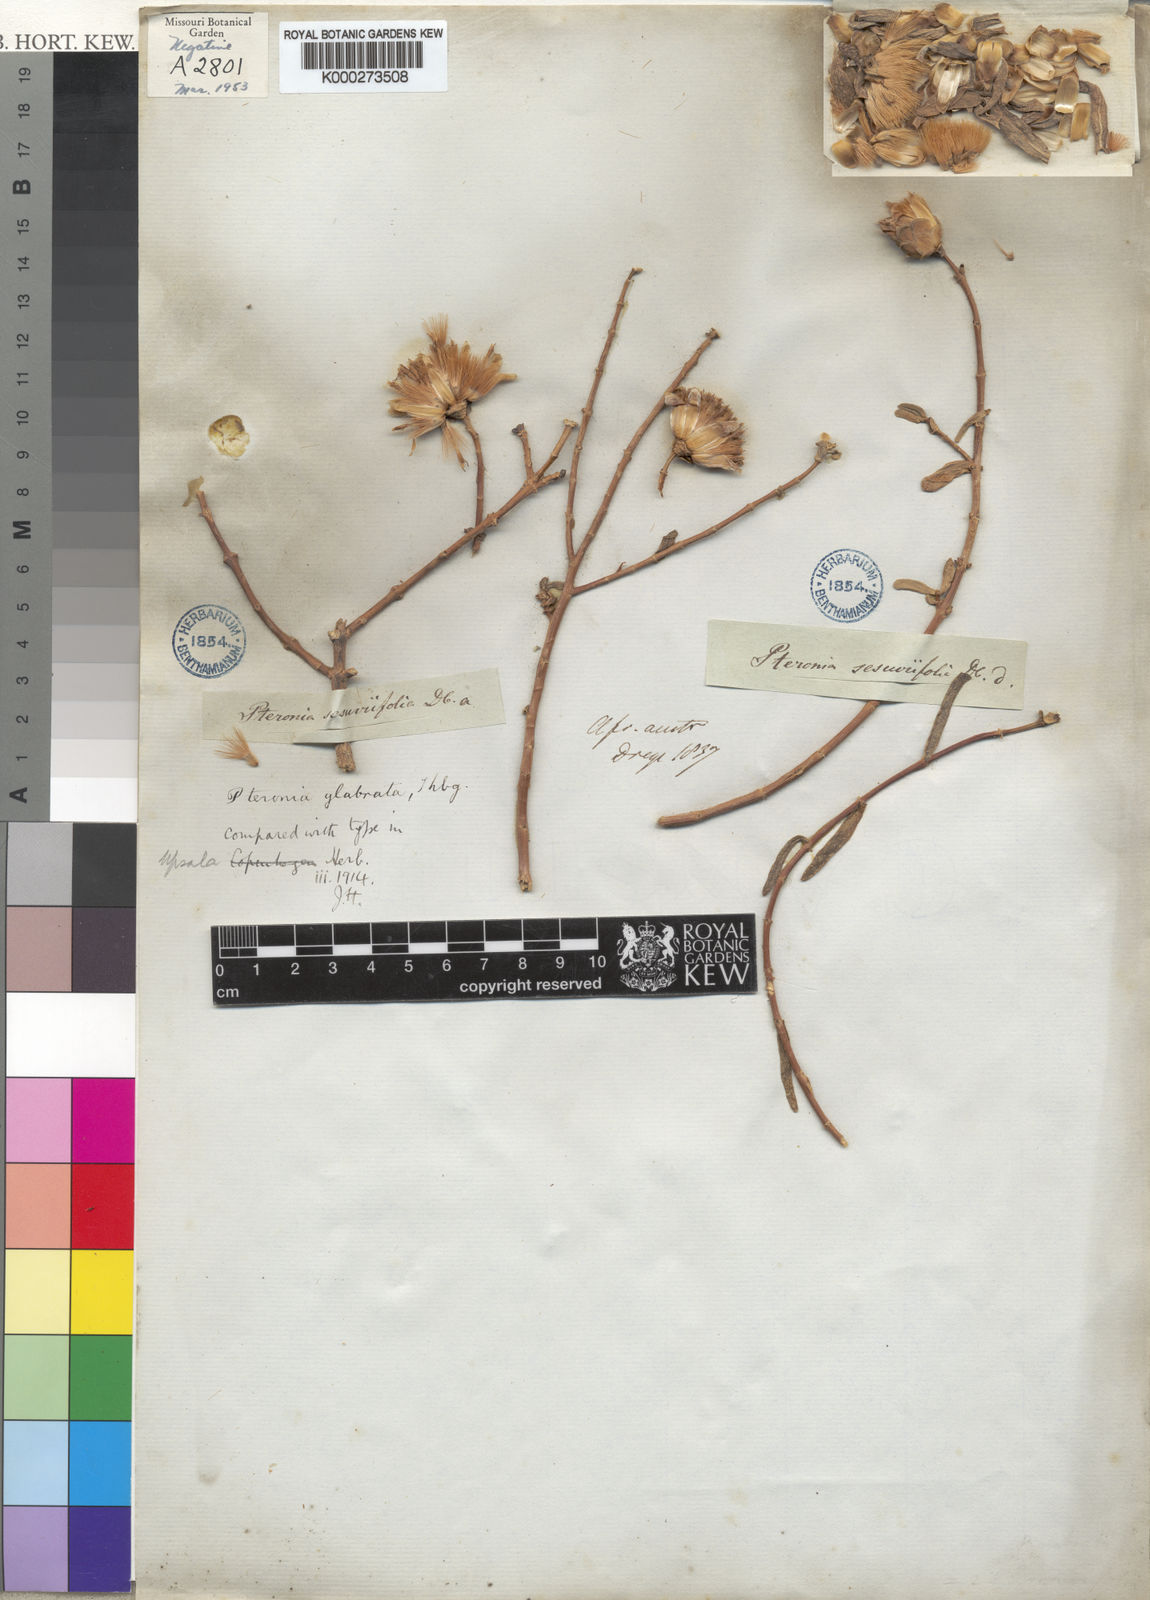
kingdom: Plantae
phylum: Tracheophyta
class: Magnoliopsida
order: Asterales
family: Asteraceae
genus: Pteronia
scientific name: Pteronia
